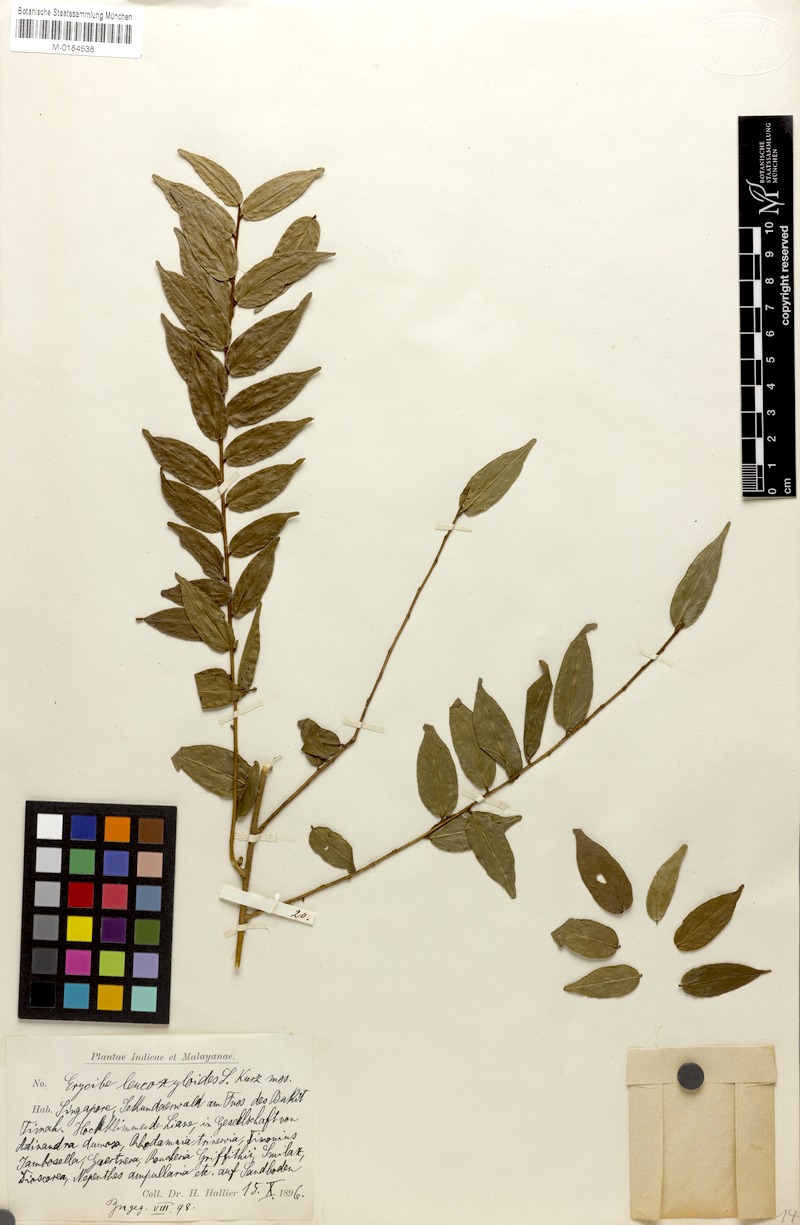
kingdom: Plantae
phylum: Tracheophyta
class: Magnoliopsida
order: Solanales
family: Convolvulaceae
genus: Erycibe
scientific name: Erycibe leucoxyloides
